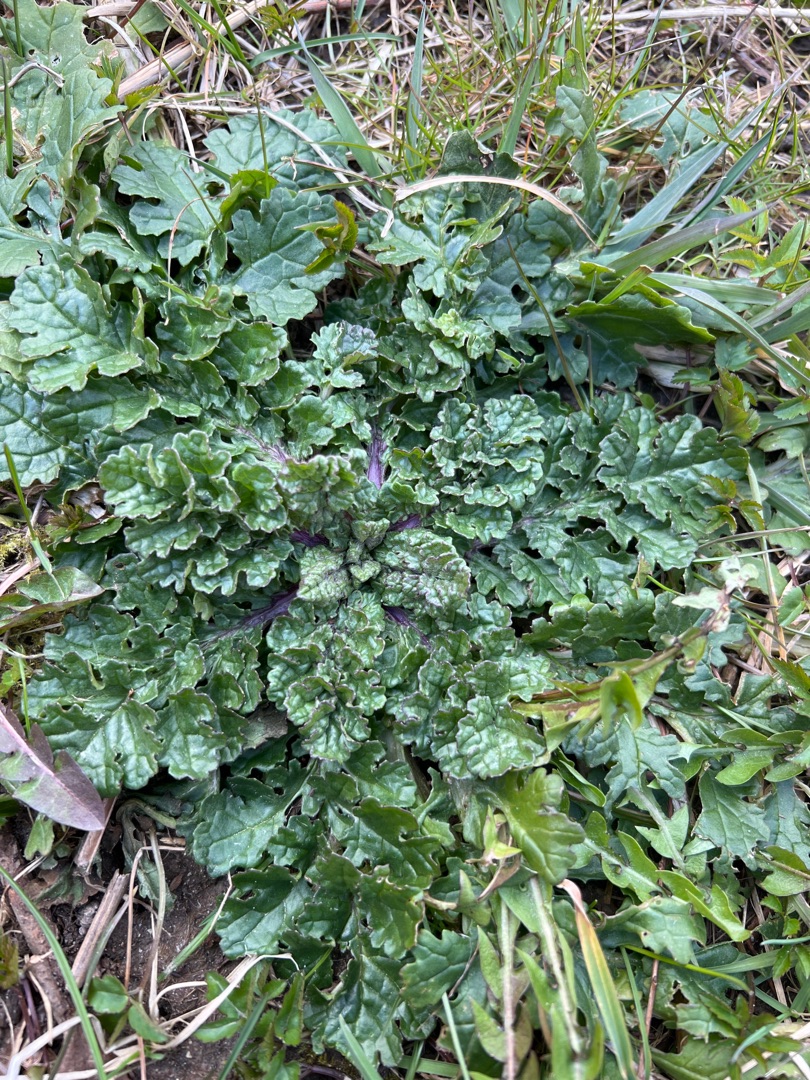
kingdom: Plantae
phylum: Tracheophyta
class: Magnoliopsida
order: Asterales
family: Asteraceae
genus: Jacobaea
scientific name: Jacobaea vulgaris
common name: Eng-brandbæger
